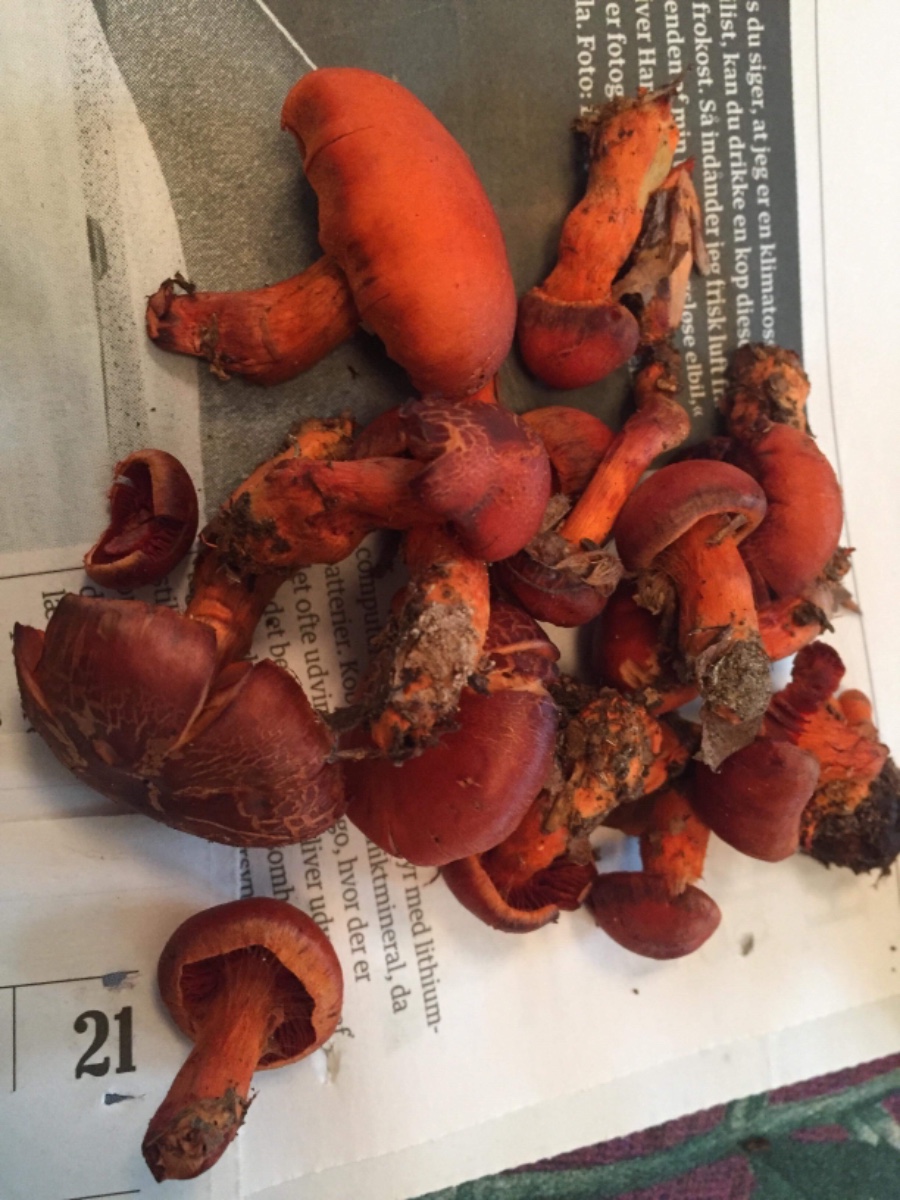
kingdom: Fungi
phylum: Basidiomycota
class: Agaricomycetes
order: Agaricales
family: Cortinariaceae
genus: Cortinarius
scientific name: Cortinarius cinnabarinus
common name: cinnober-slørhat
